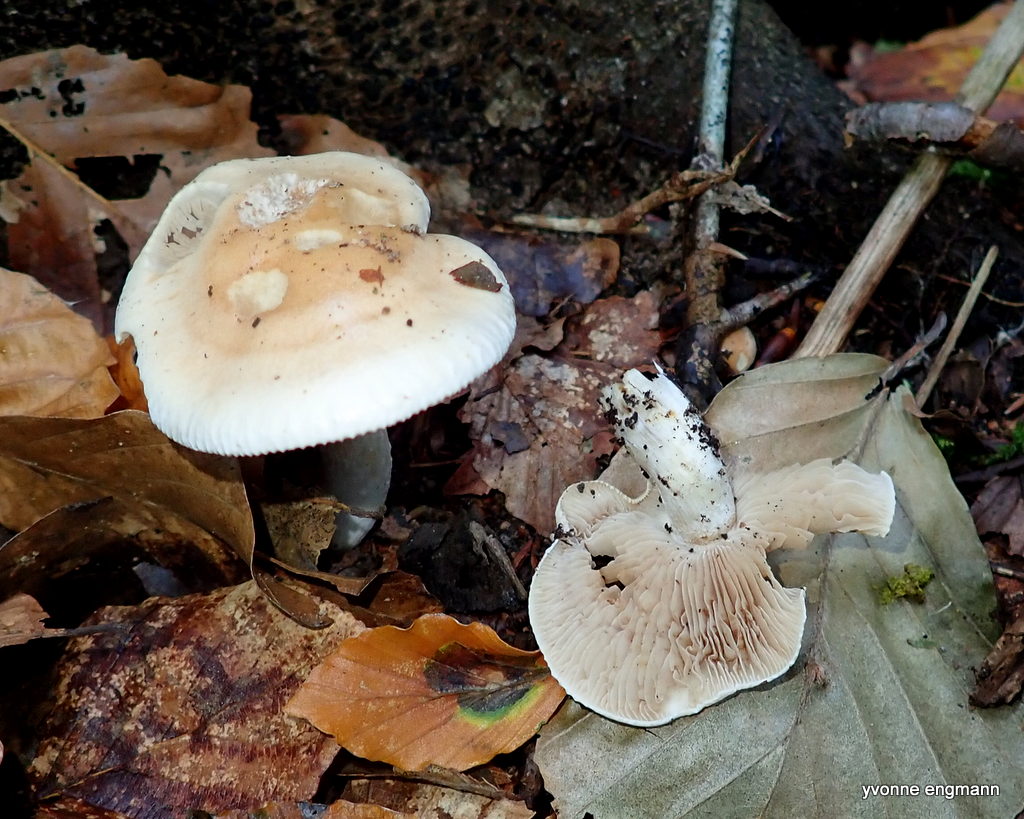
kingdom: Fungi
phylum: Basidiomycota
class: Agaricomycetes
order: Agaricales
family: Hymenogastraceae
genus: Hebeloma
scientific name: Hebeloma
